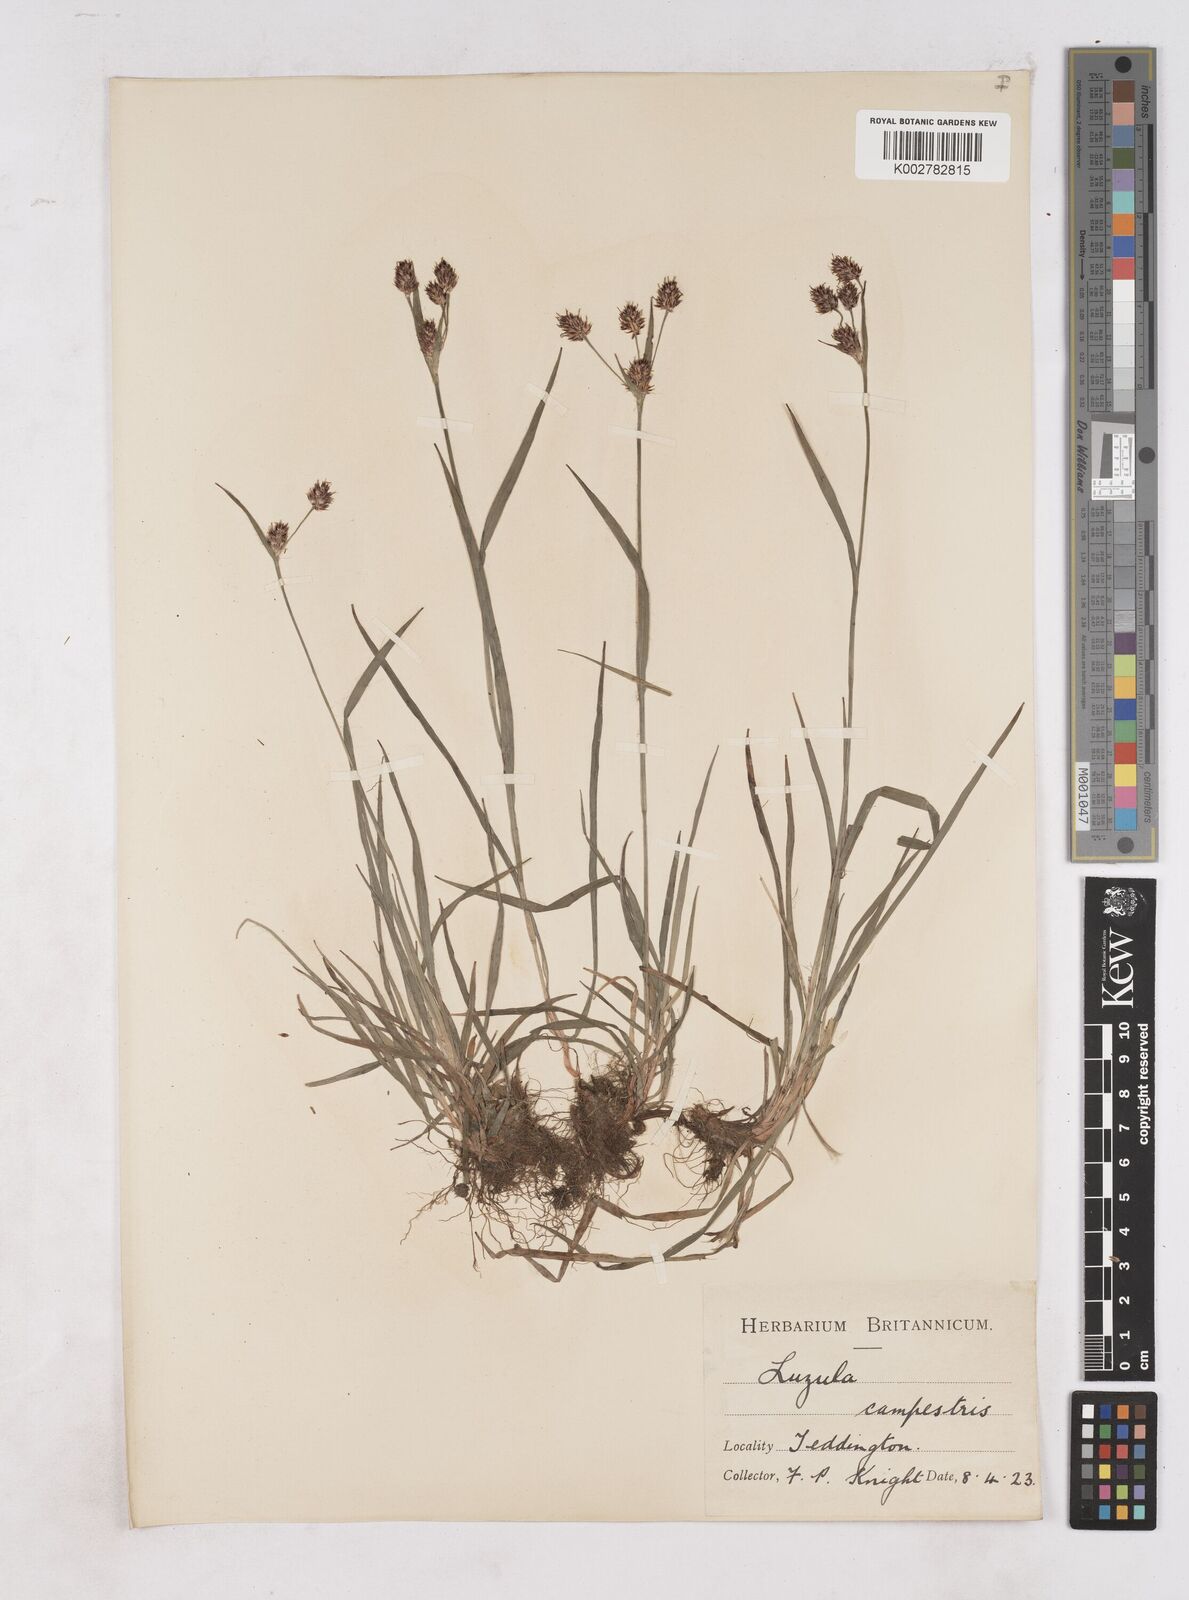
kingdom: Plantae
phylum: Tracheophyta
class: Liliopsida
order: Poales
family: Juncaceae
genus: Luzula
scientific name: Luzula campestris
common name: Field wood-rush
